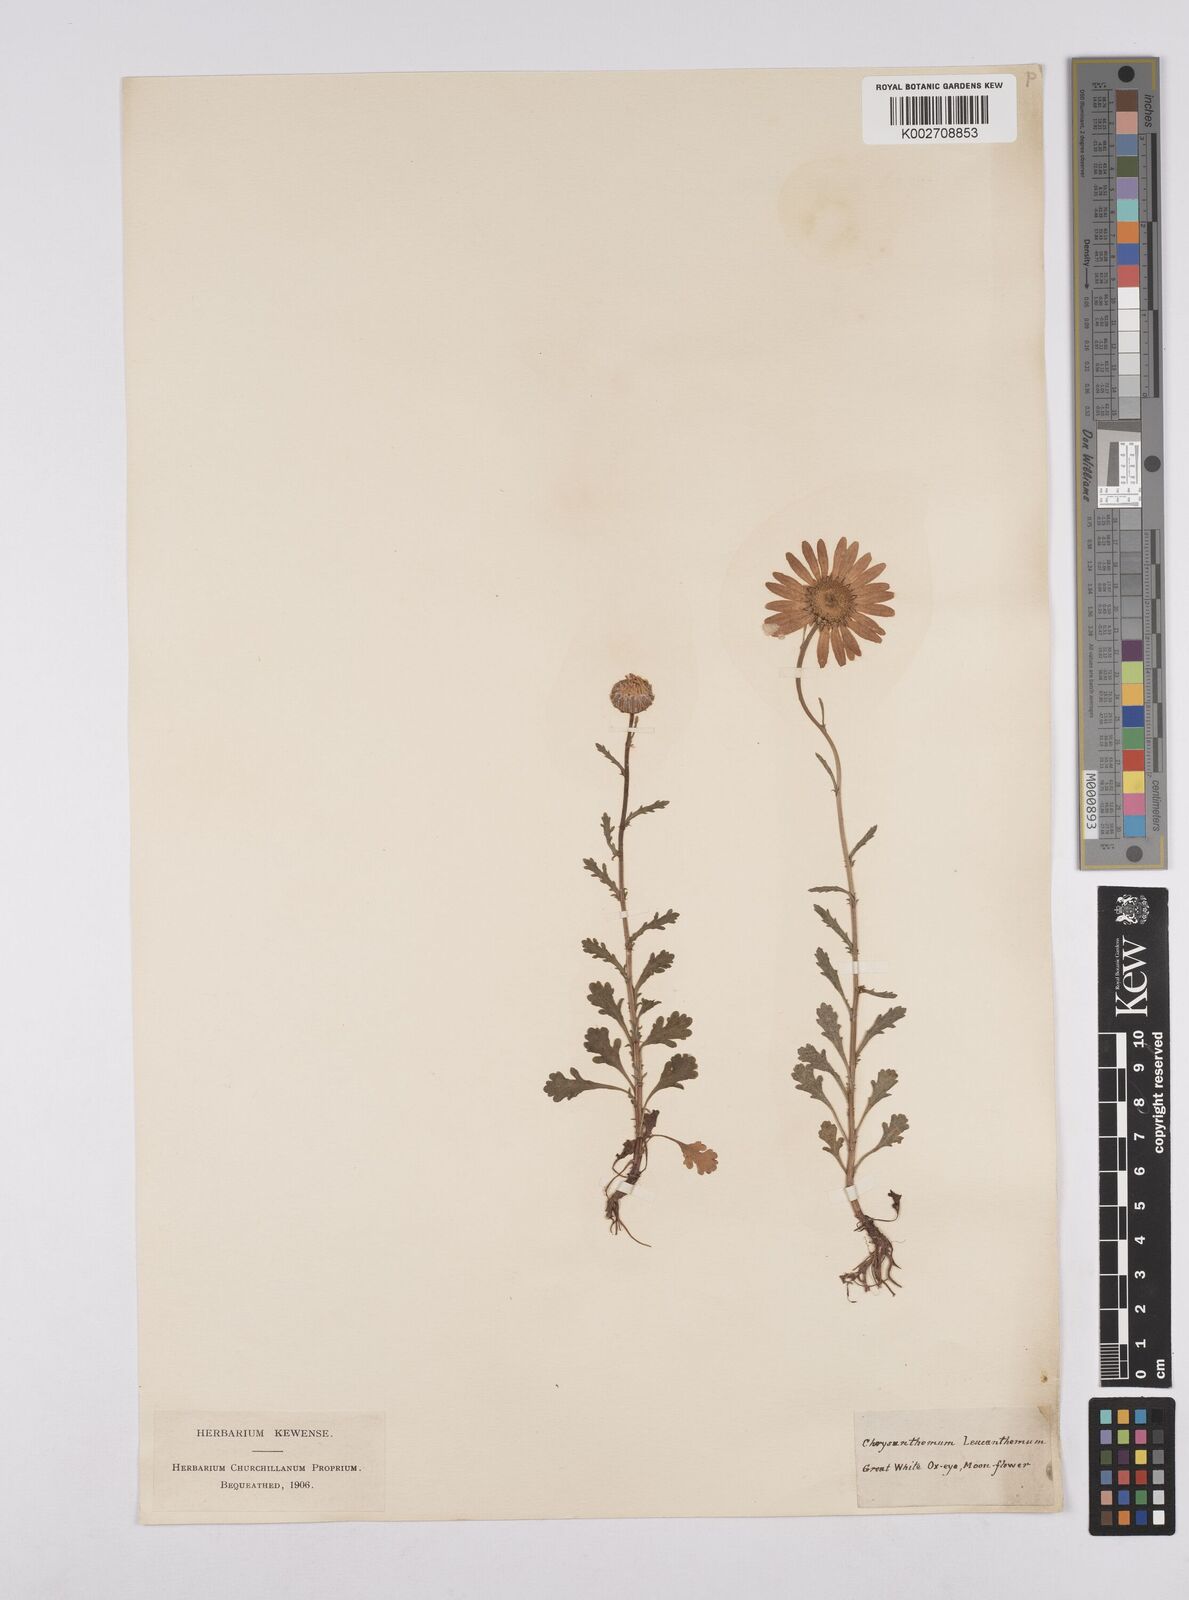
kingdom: Plantae
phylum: Tracheophyta
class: Magnoliopsida
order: Asterales
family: Asteraceae
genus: Leucanthemum
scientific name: Leucanthemum
